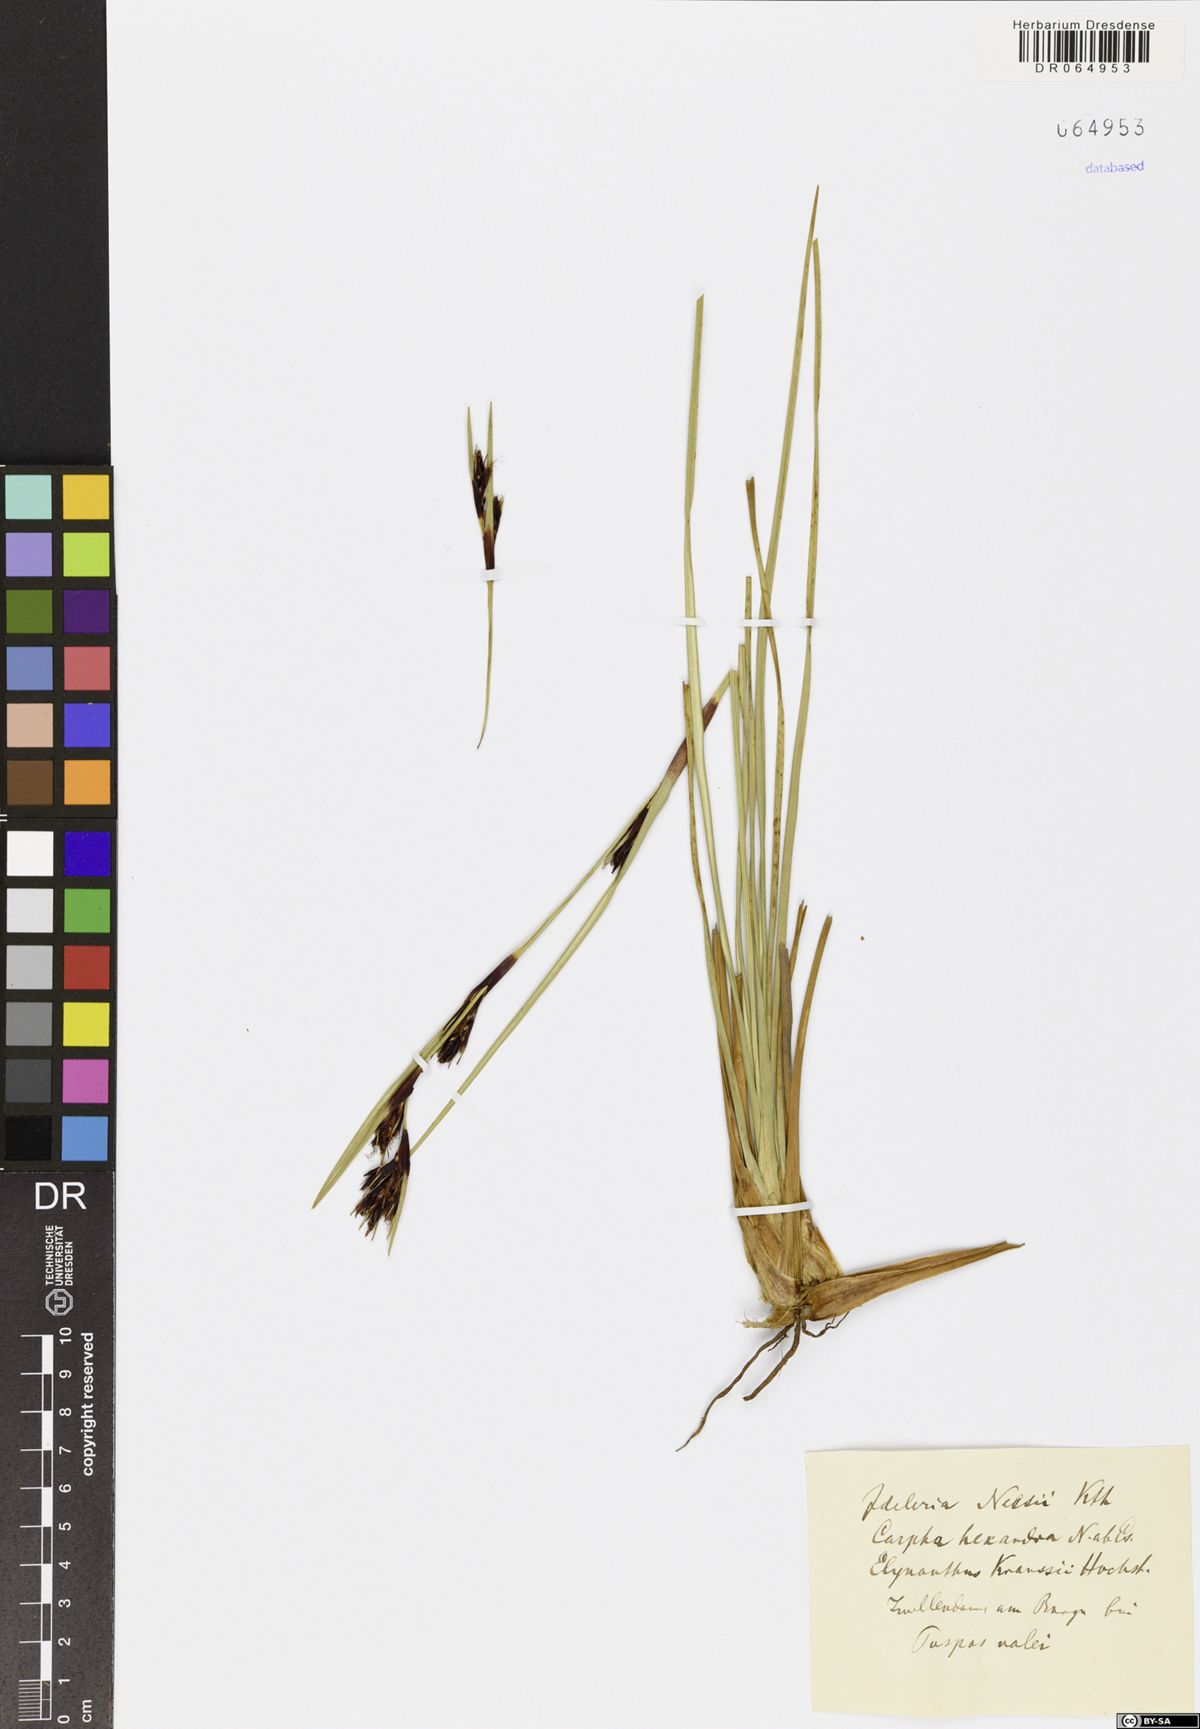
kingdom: Plantae
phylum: Tracheophyta
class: Liliopsida
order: Poales
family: Cyperaceae
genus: Cyathocoma
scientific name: Cyathocoma hexandra
